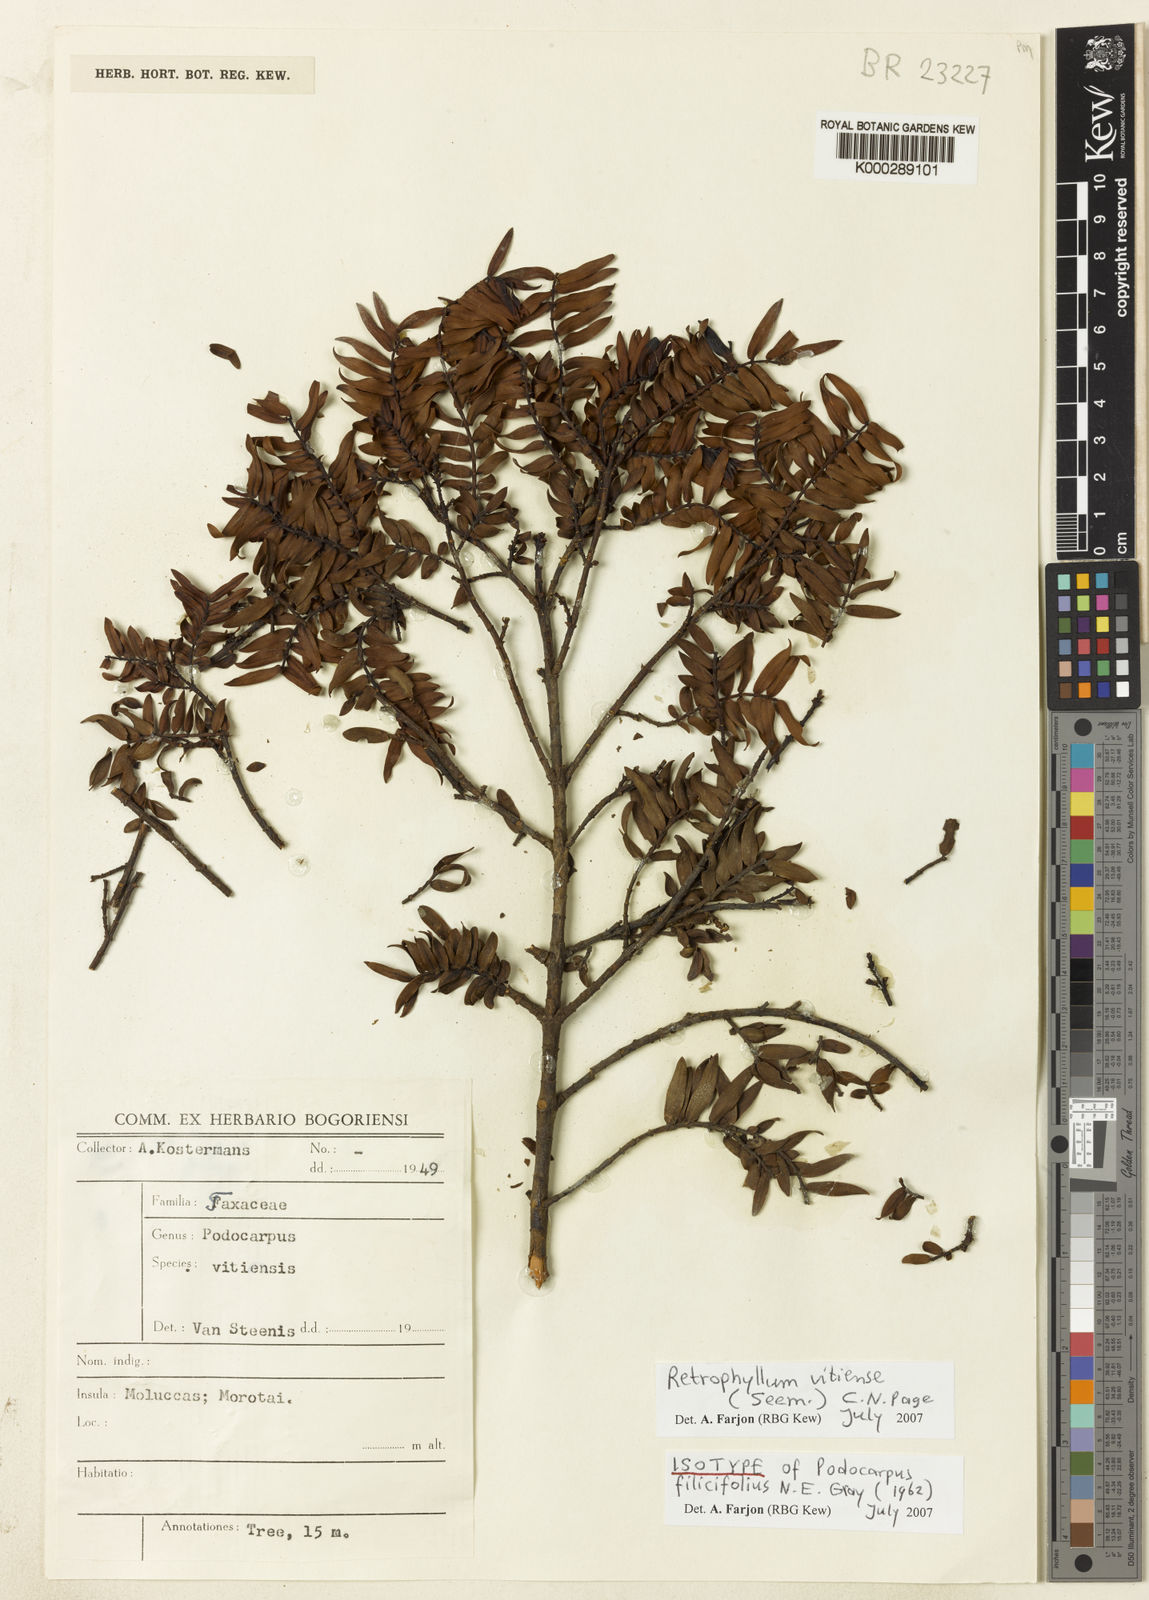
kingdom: Plantae
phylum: Tracheophyta
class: Pinopsida
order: Pinales
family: Podocarpaceae
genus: Retrophyllum
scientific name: Retrophyllum vitiense
